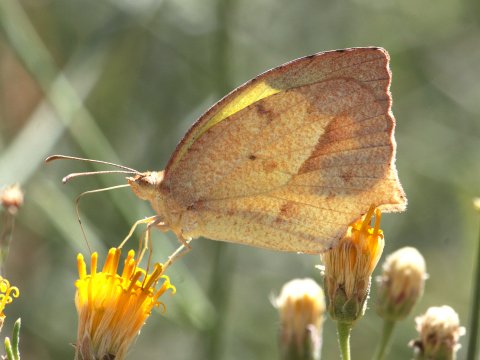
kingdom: Animalia
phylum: Arthropoda
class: Insecta
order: Lepidoptera
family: Pieridae
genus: Eurema
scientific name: Eurema mexicana
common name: Mexican Yellow
